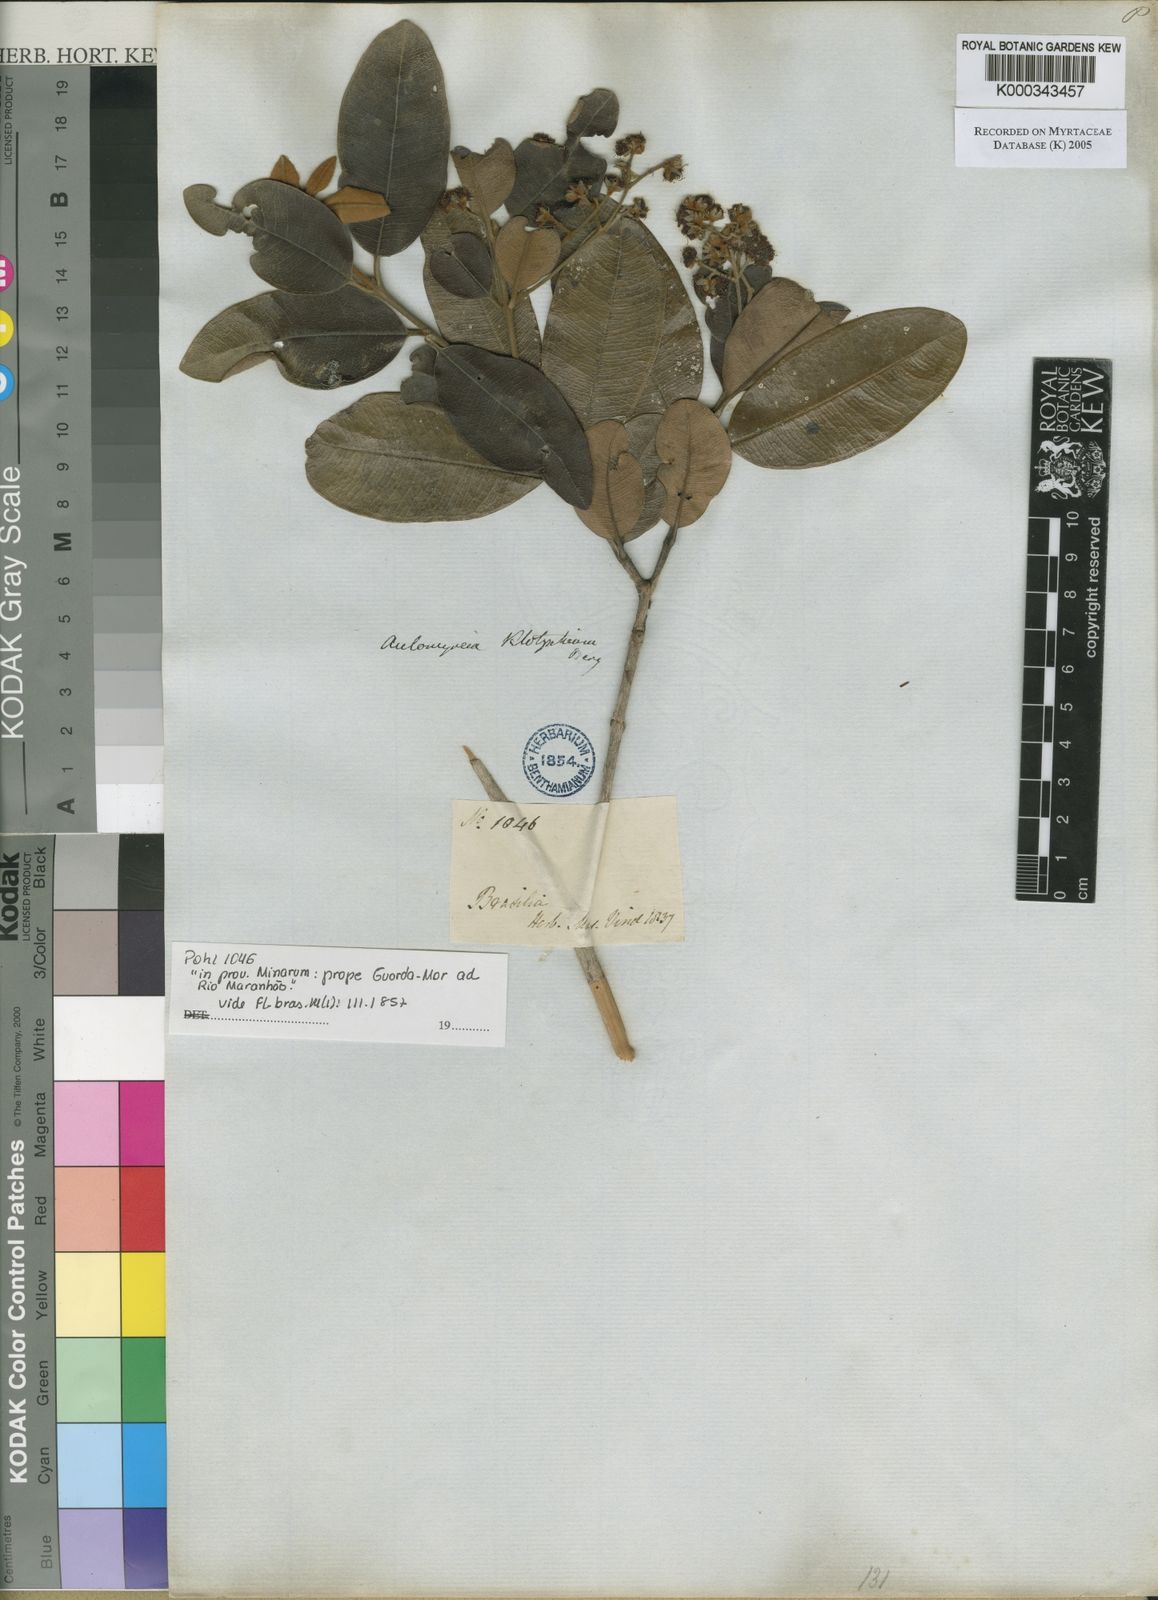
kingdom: Plantae
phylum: Tracheophyta
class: Magnoliopsida
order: Myrtales
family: Myrtaceae
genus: Myrcia
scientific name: Myrcia sehnemiana
